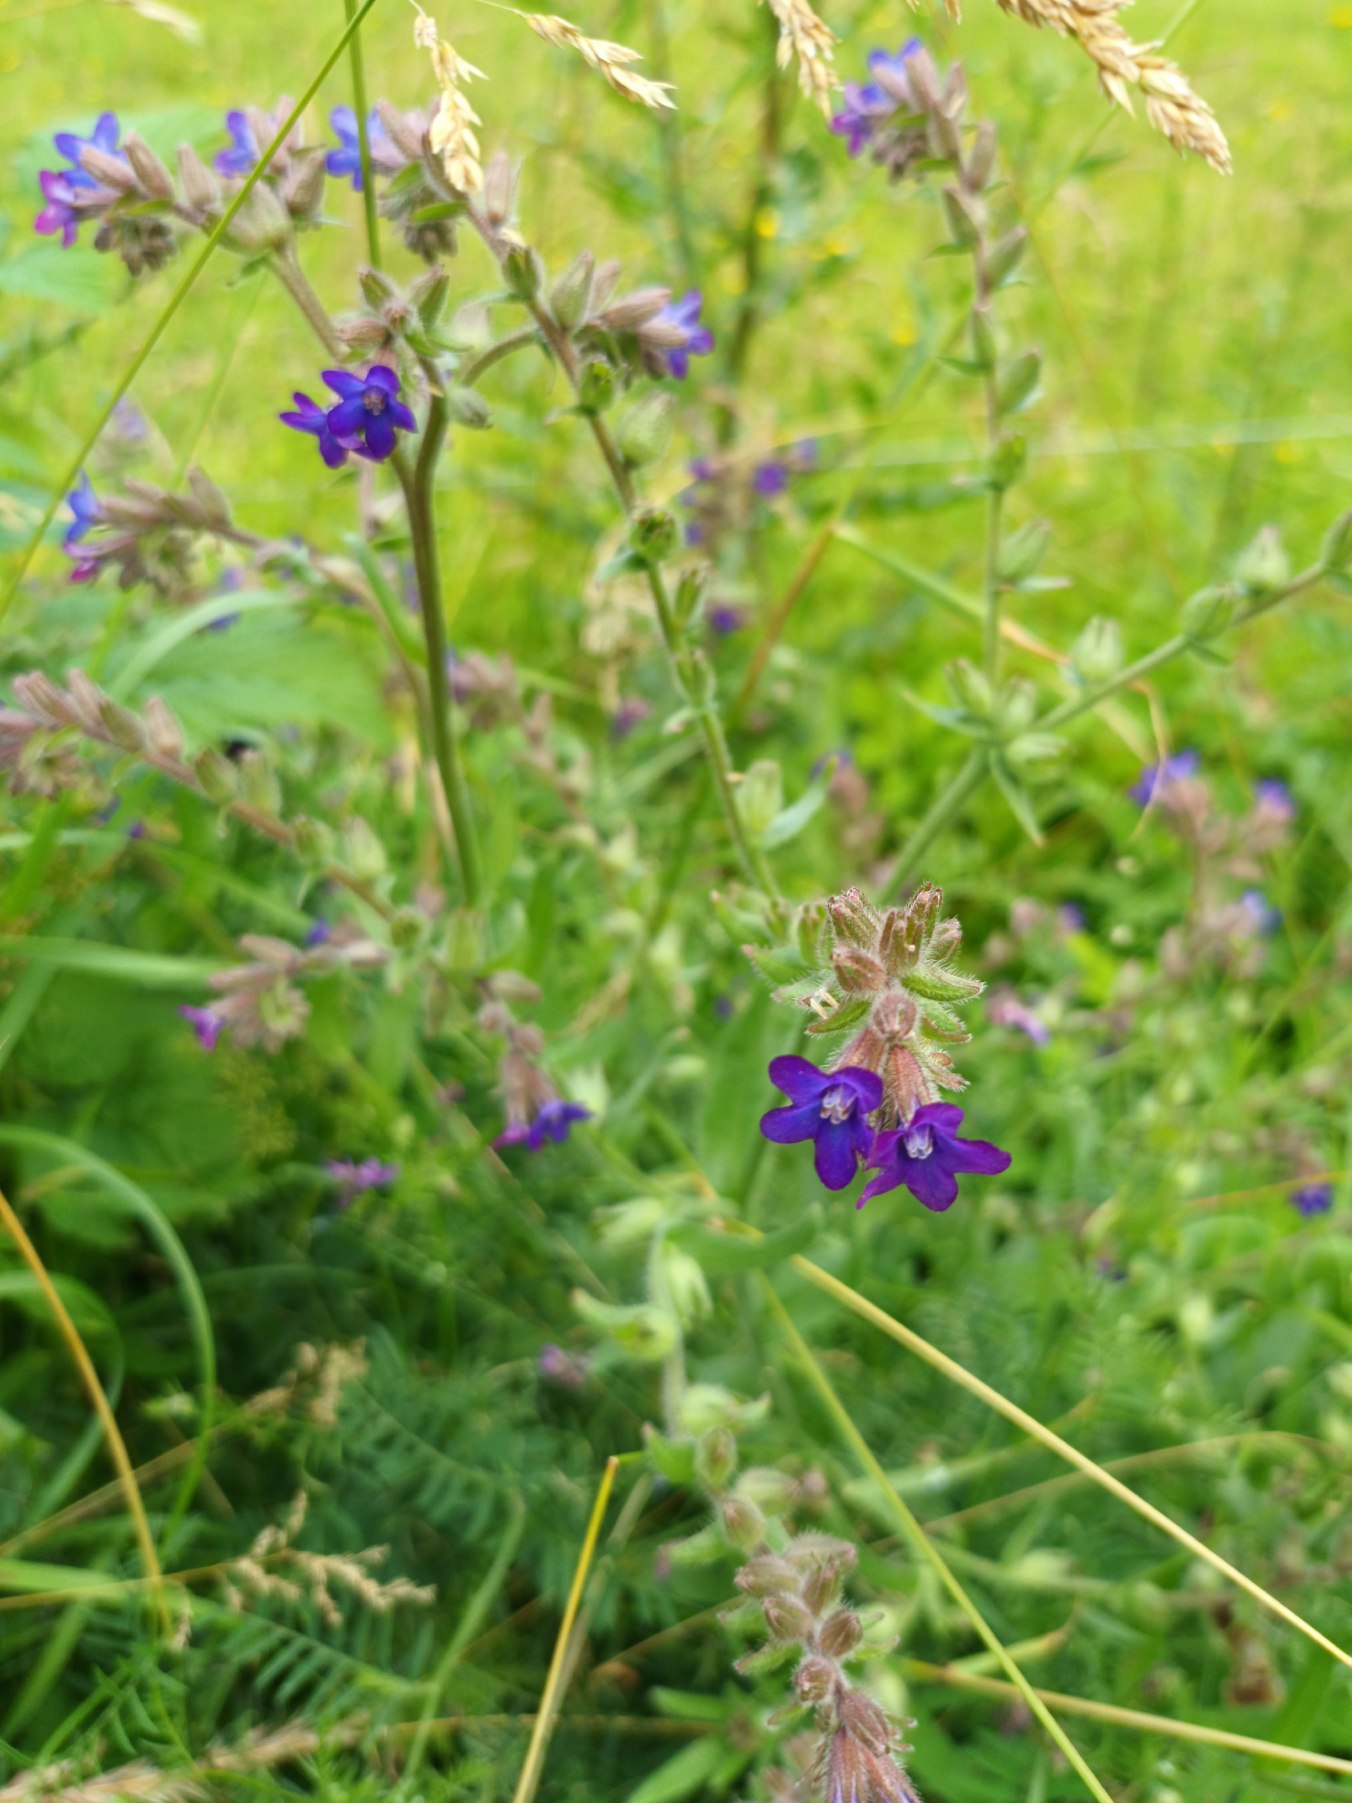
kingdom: Plantae
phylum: Tracheophyta
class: Magnoliopsida
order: Boraginales
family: Boraginaceae
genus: Anchusa
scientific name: Anchusa officinalis
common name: Læge-oksetunge
